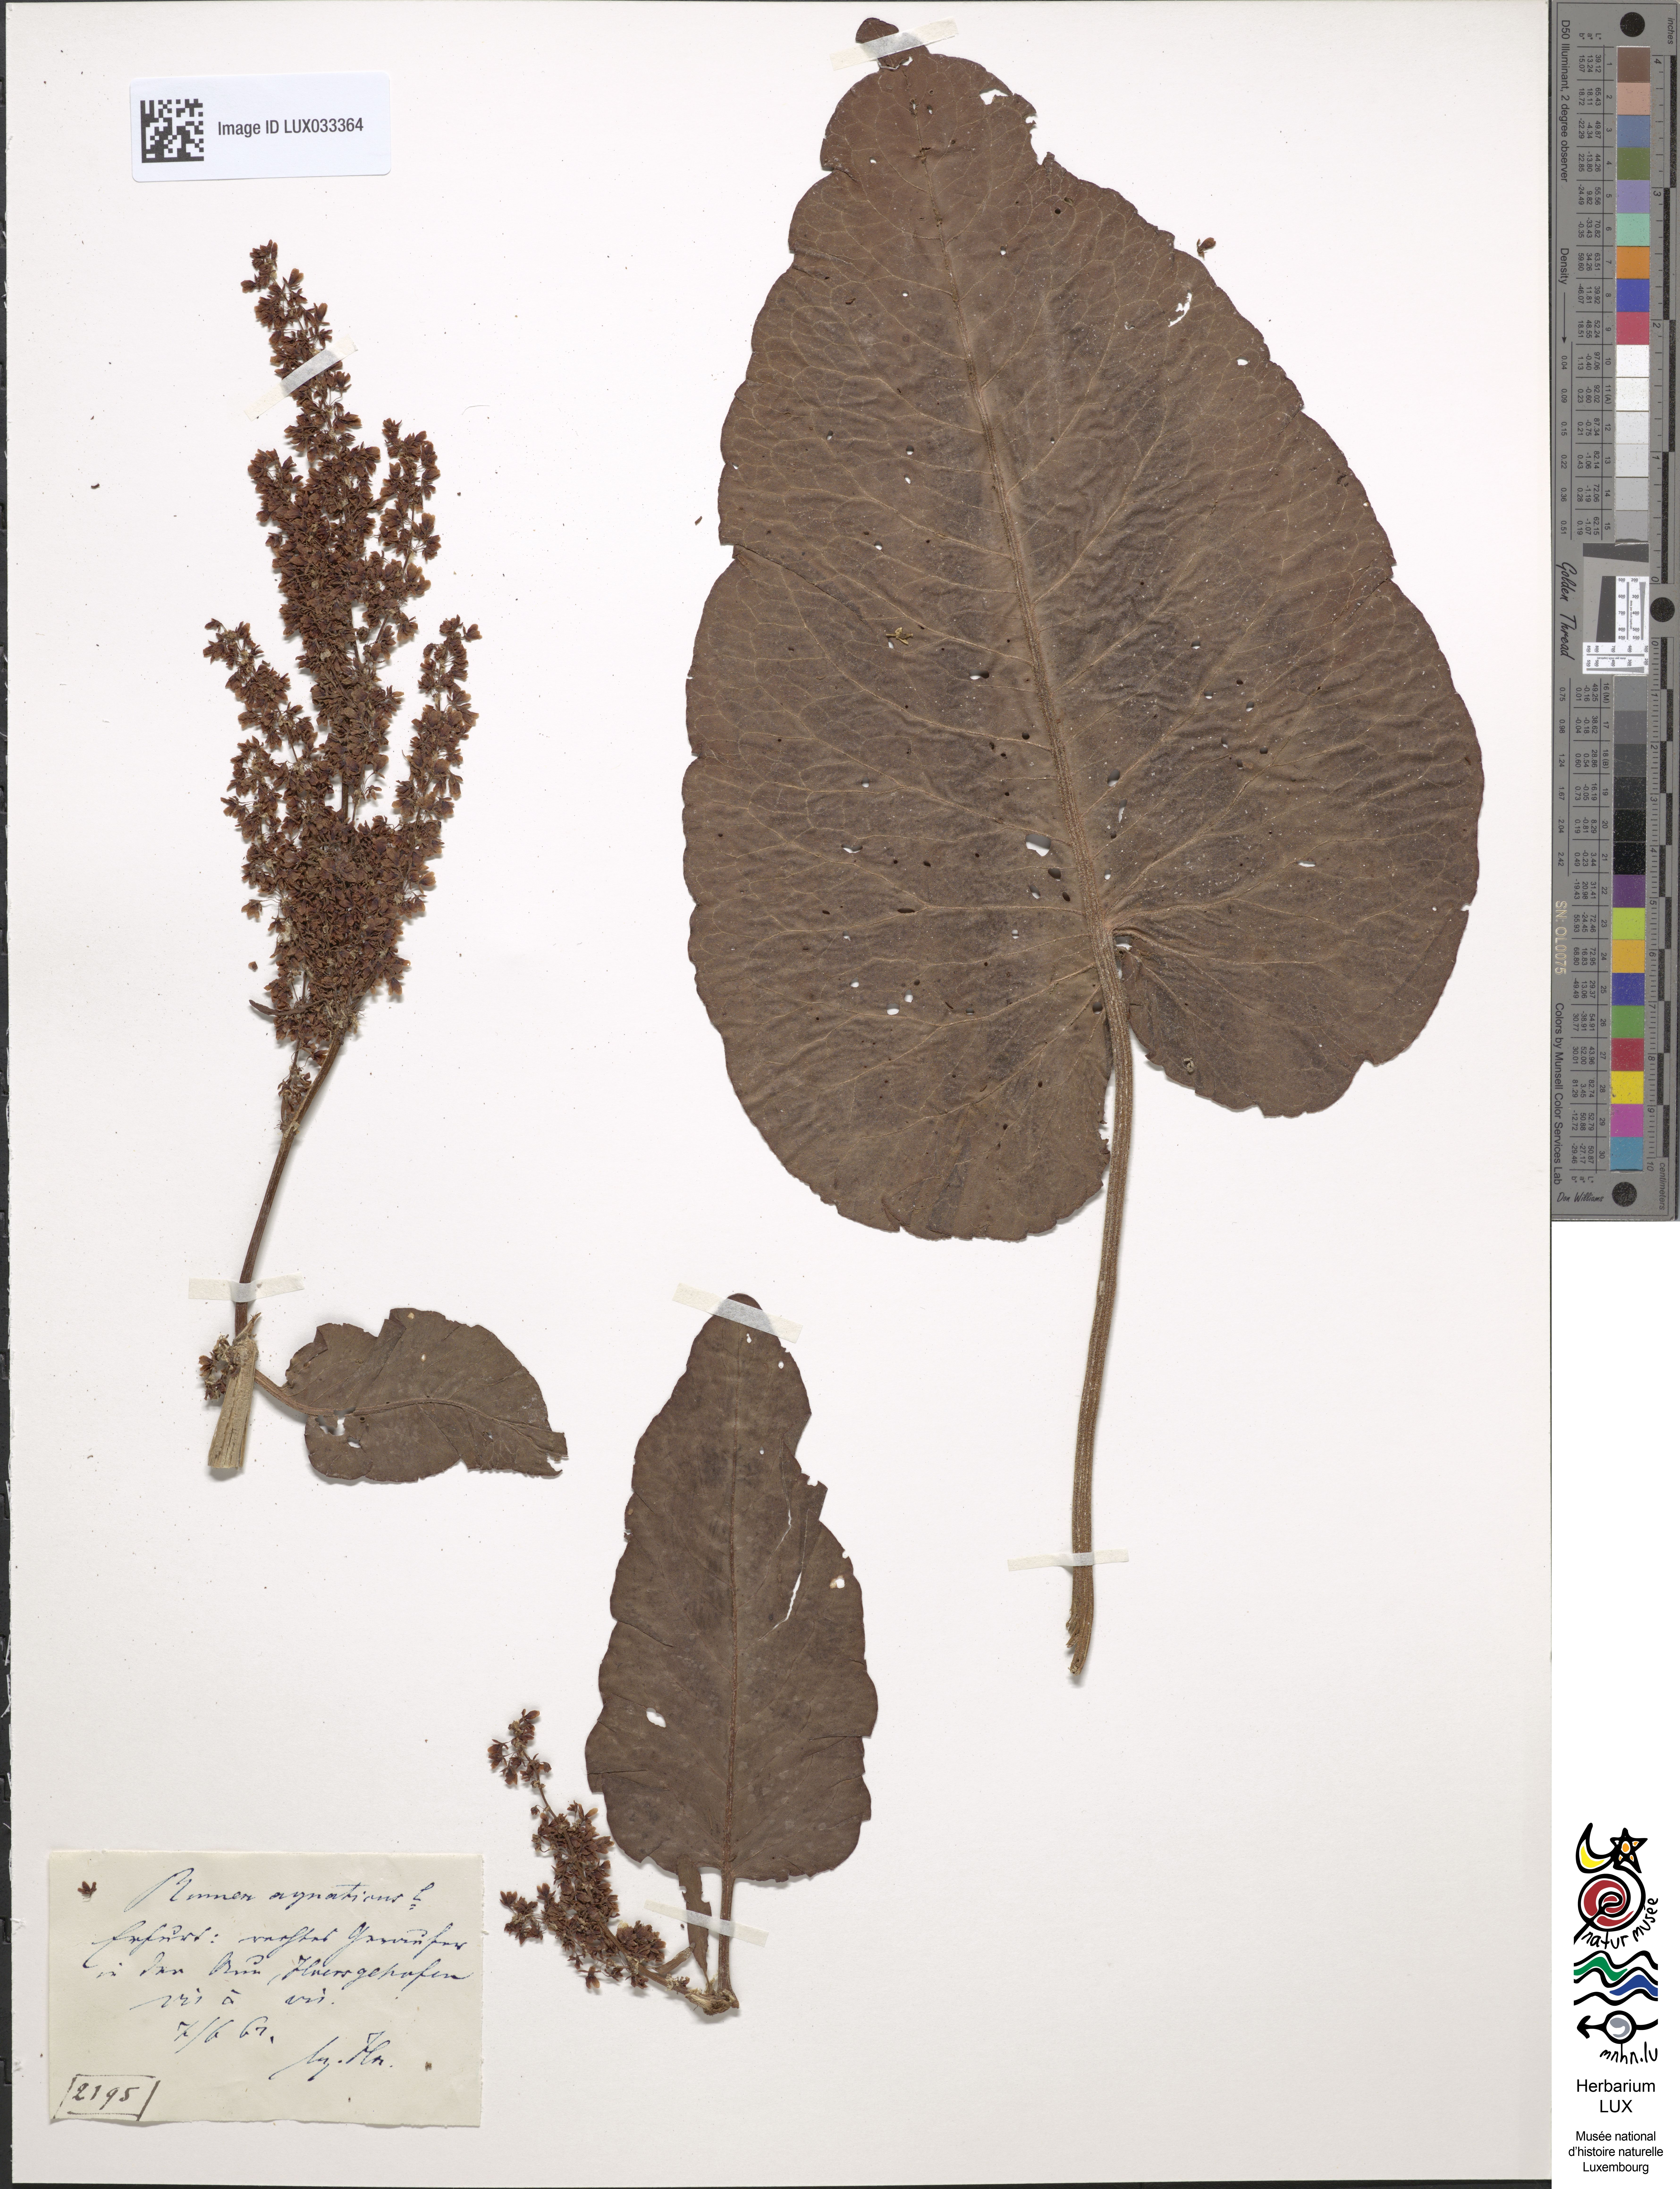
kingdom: Plantae
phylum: Tracheophyta
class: Magnoliopsida
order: Caryophyllales
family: Polygonaceae
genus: Rumex
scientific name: Rumex aquaticus
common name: Scottish dock
